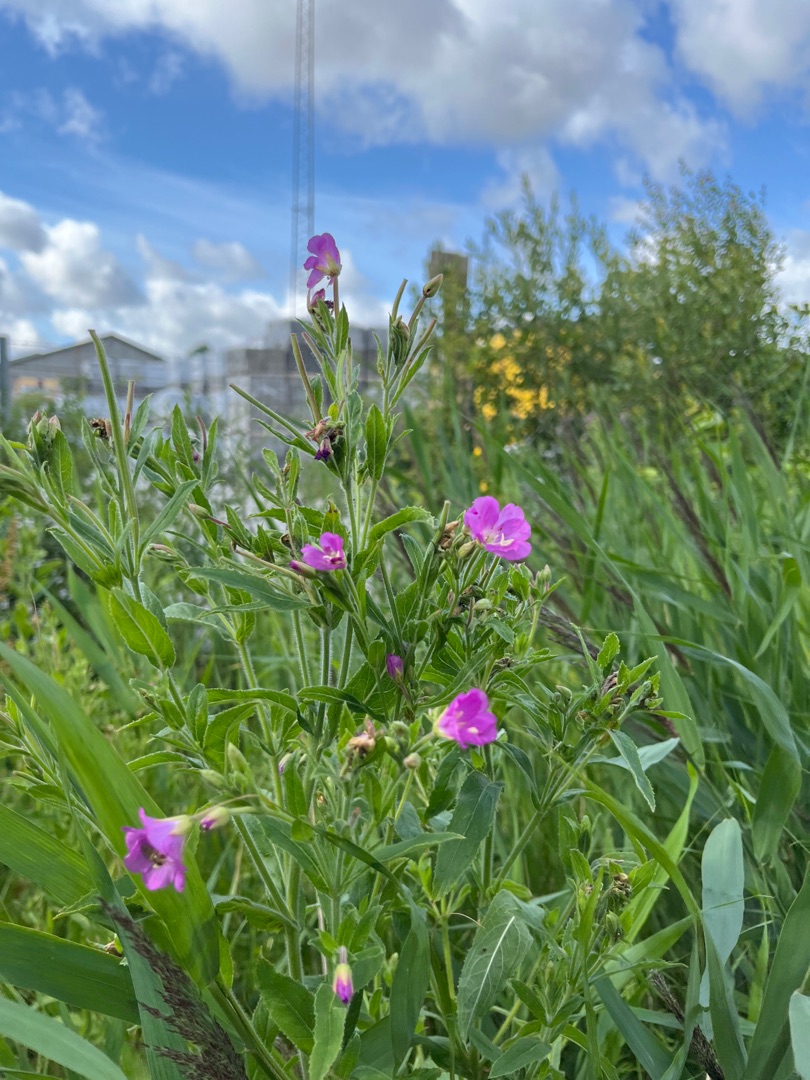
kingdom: Plantae
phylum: Tracheophyta
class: Magnoliopsida
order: Myrtales
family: Onagraceae
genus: Epilobium
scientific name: Epilobium hirsutum
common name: Lådden dueurt
